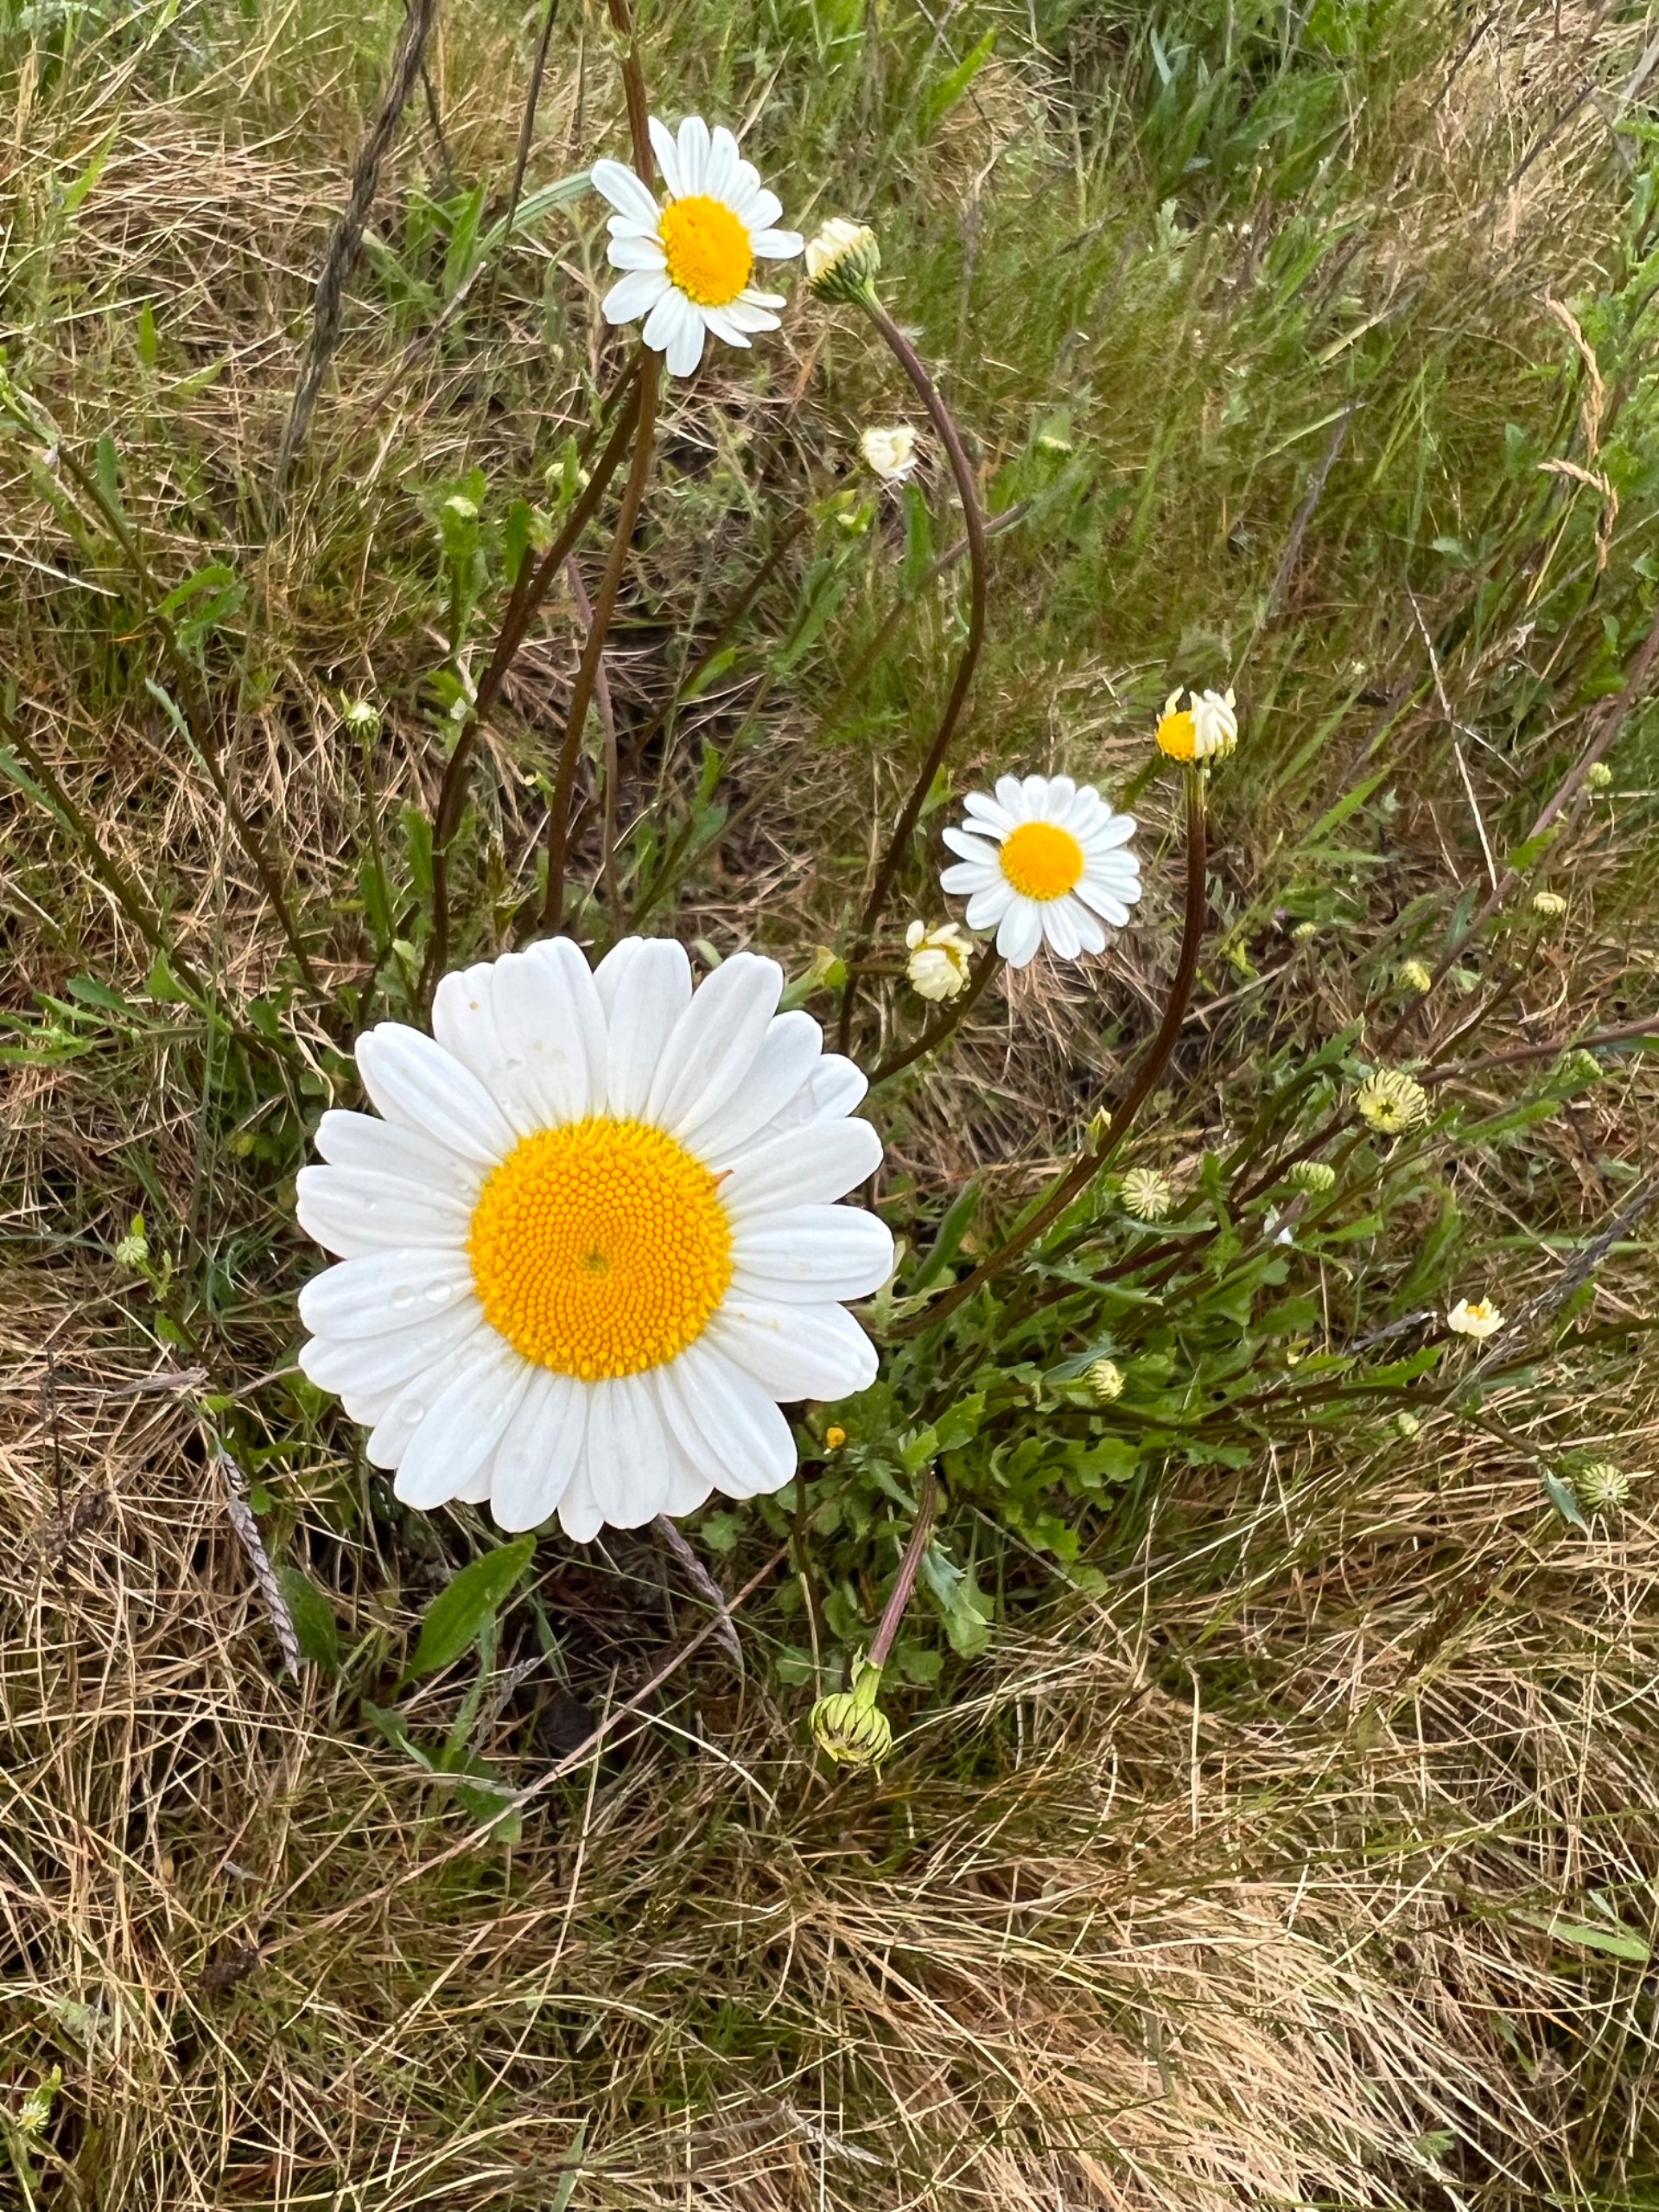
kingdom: Plantae
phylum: Tracheophyta
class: Magnoliopsida
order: Asterales
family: Asteraceae
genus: Leucanthemum
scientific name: Leucanthemum vulgare
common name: Hvid okseøje
